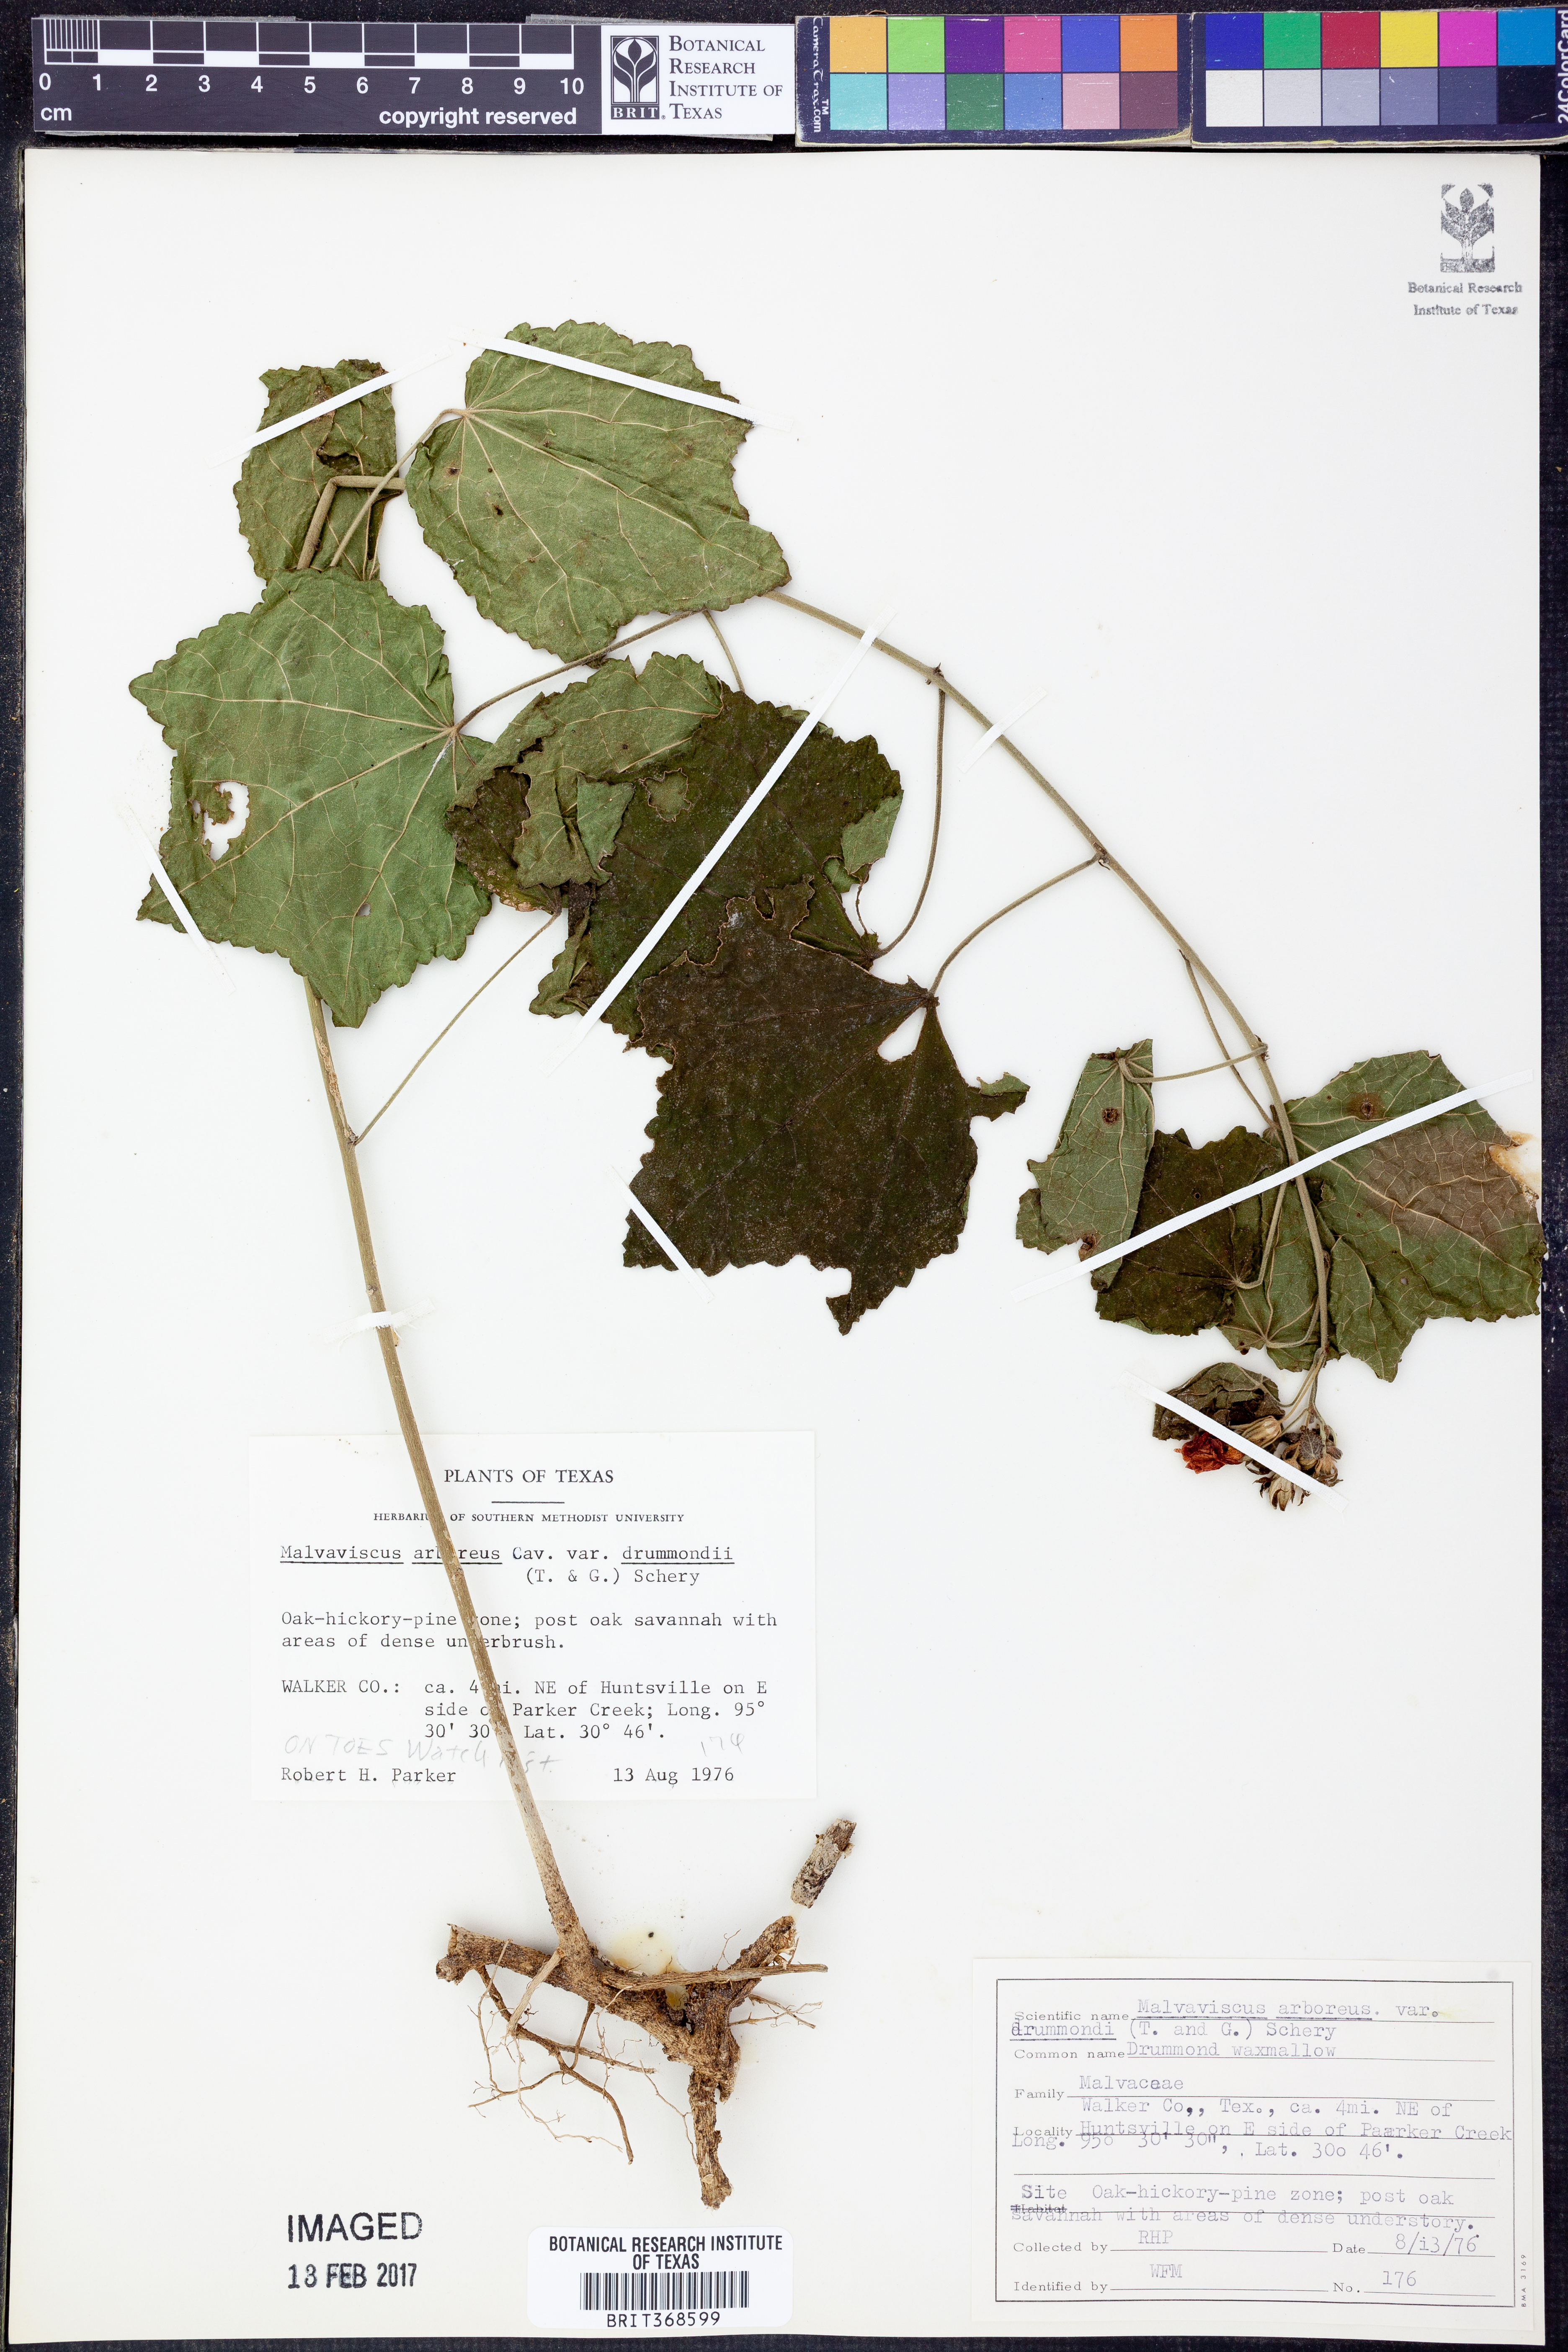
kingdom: Plantae
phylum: Tracheophyta
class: Magnoliopsida
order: Malvales
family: Malvaceae
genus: Malvaviscus
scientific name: Malvaviscus arboreus
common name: Wax mallow
